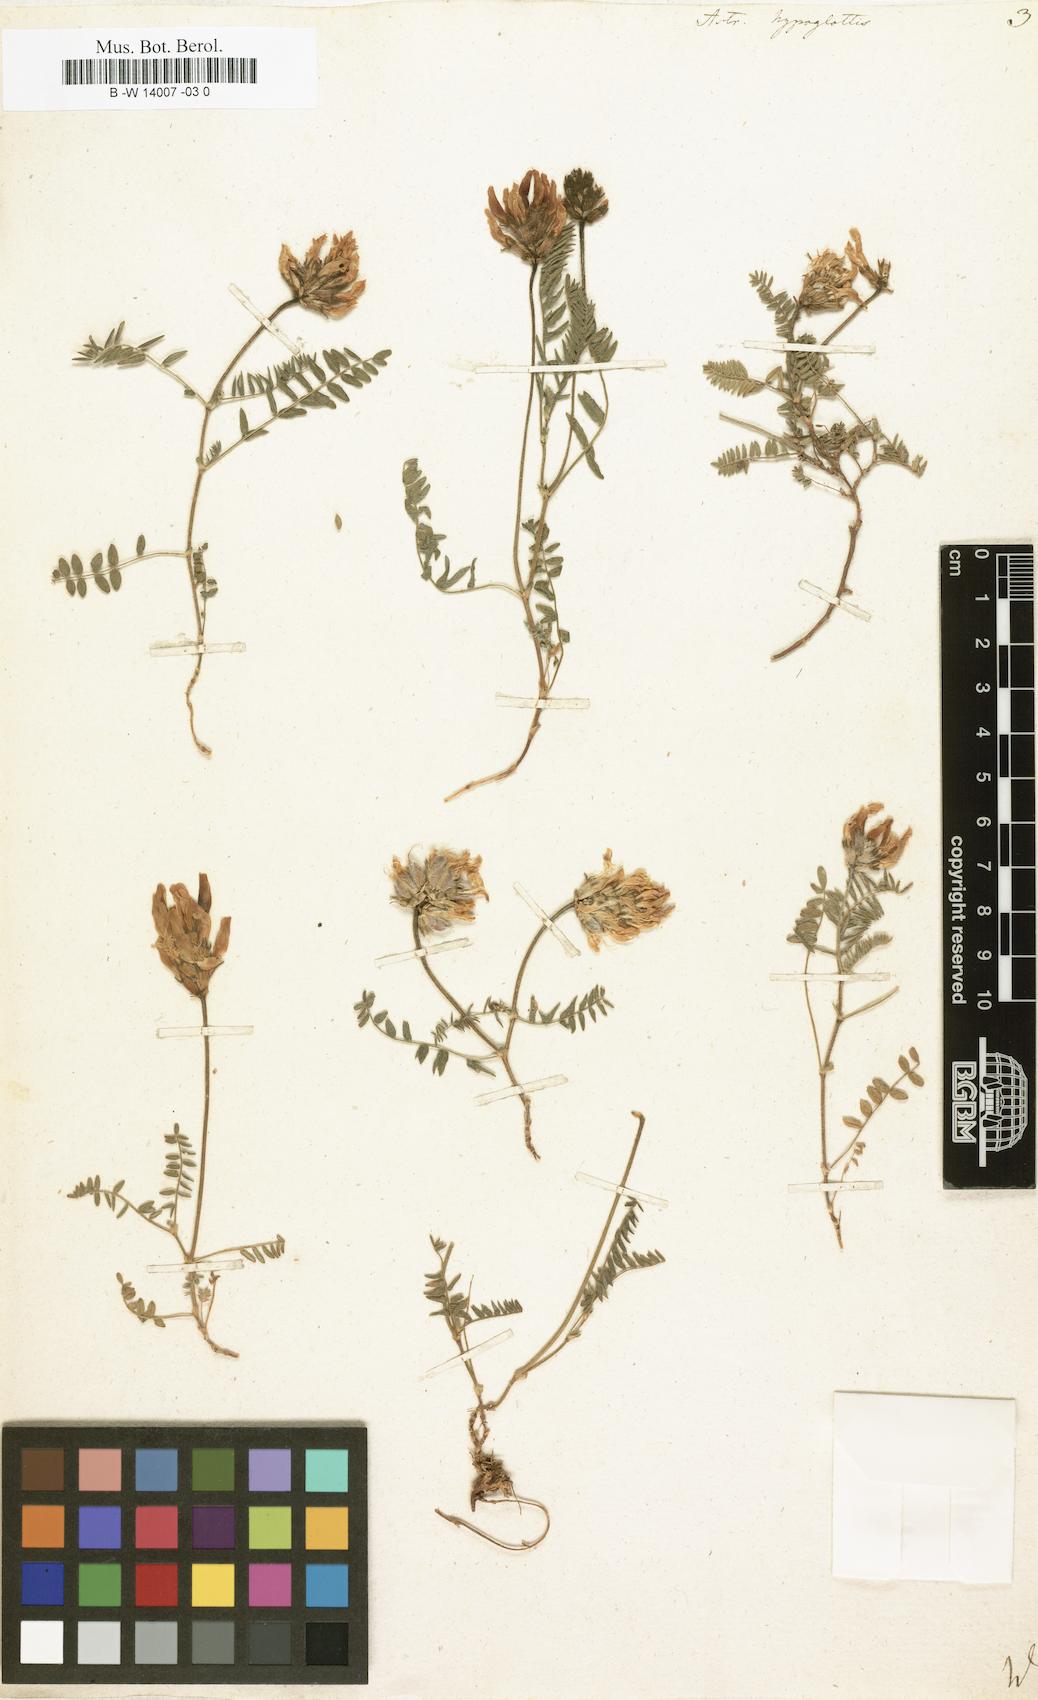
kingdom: Plantae
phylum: Tracheophyta
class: Magnoliopsida
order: Fabales
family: Fabaceae
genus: Astragalus
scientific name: Astragalus hypoglottis
